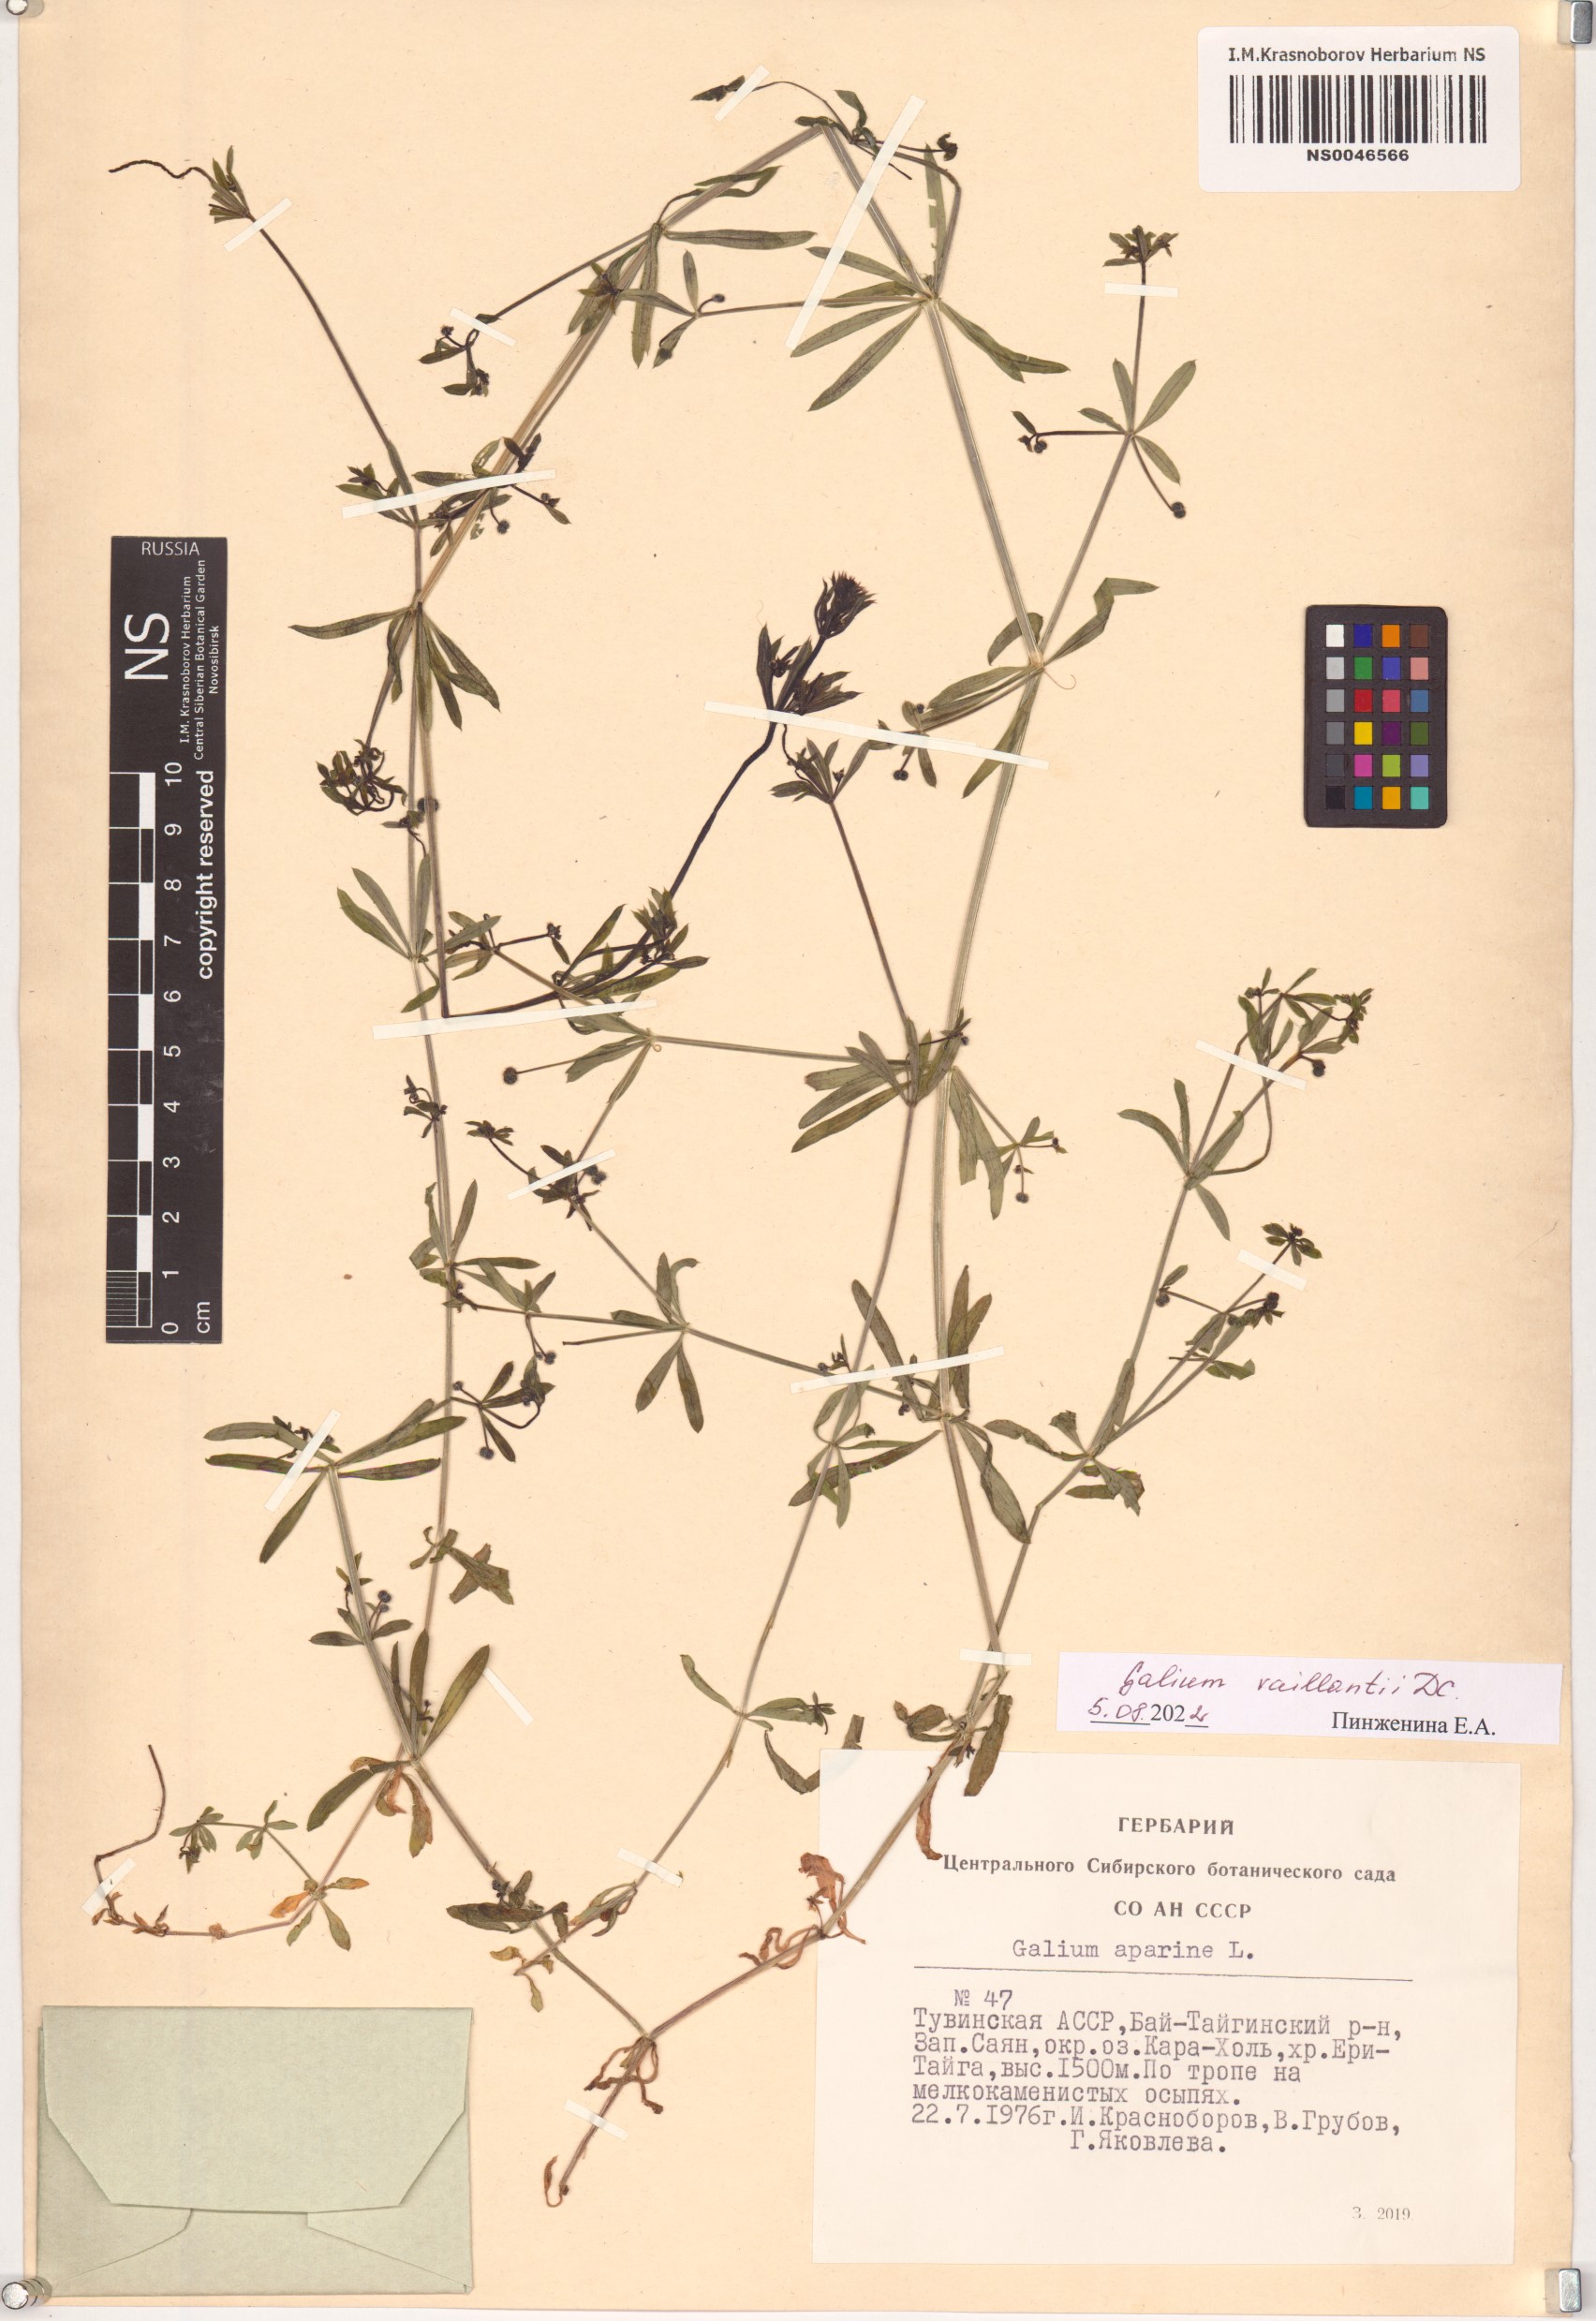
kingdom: Plantae
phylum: Tracheophyta
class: Magnoliopsida
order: Gentianales
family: Rubiaceae
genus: Galium
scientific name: Galium spurium
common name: False cleavers
